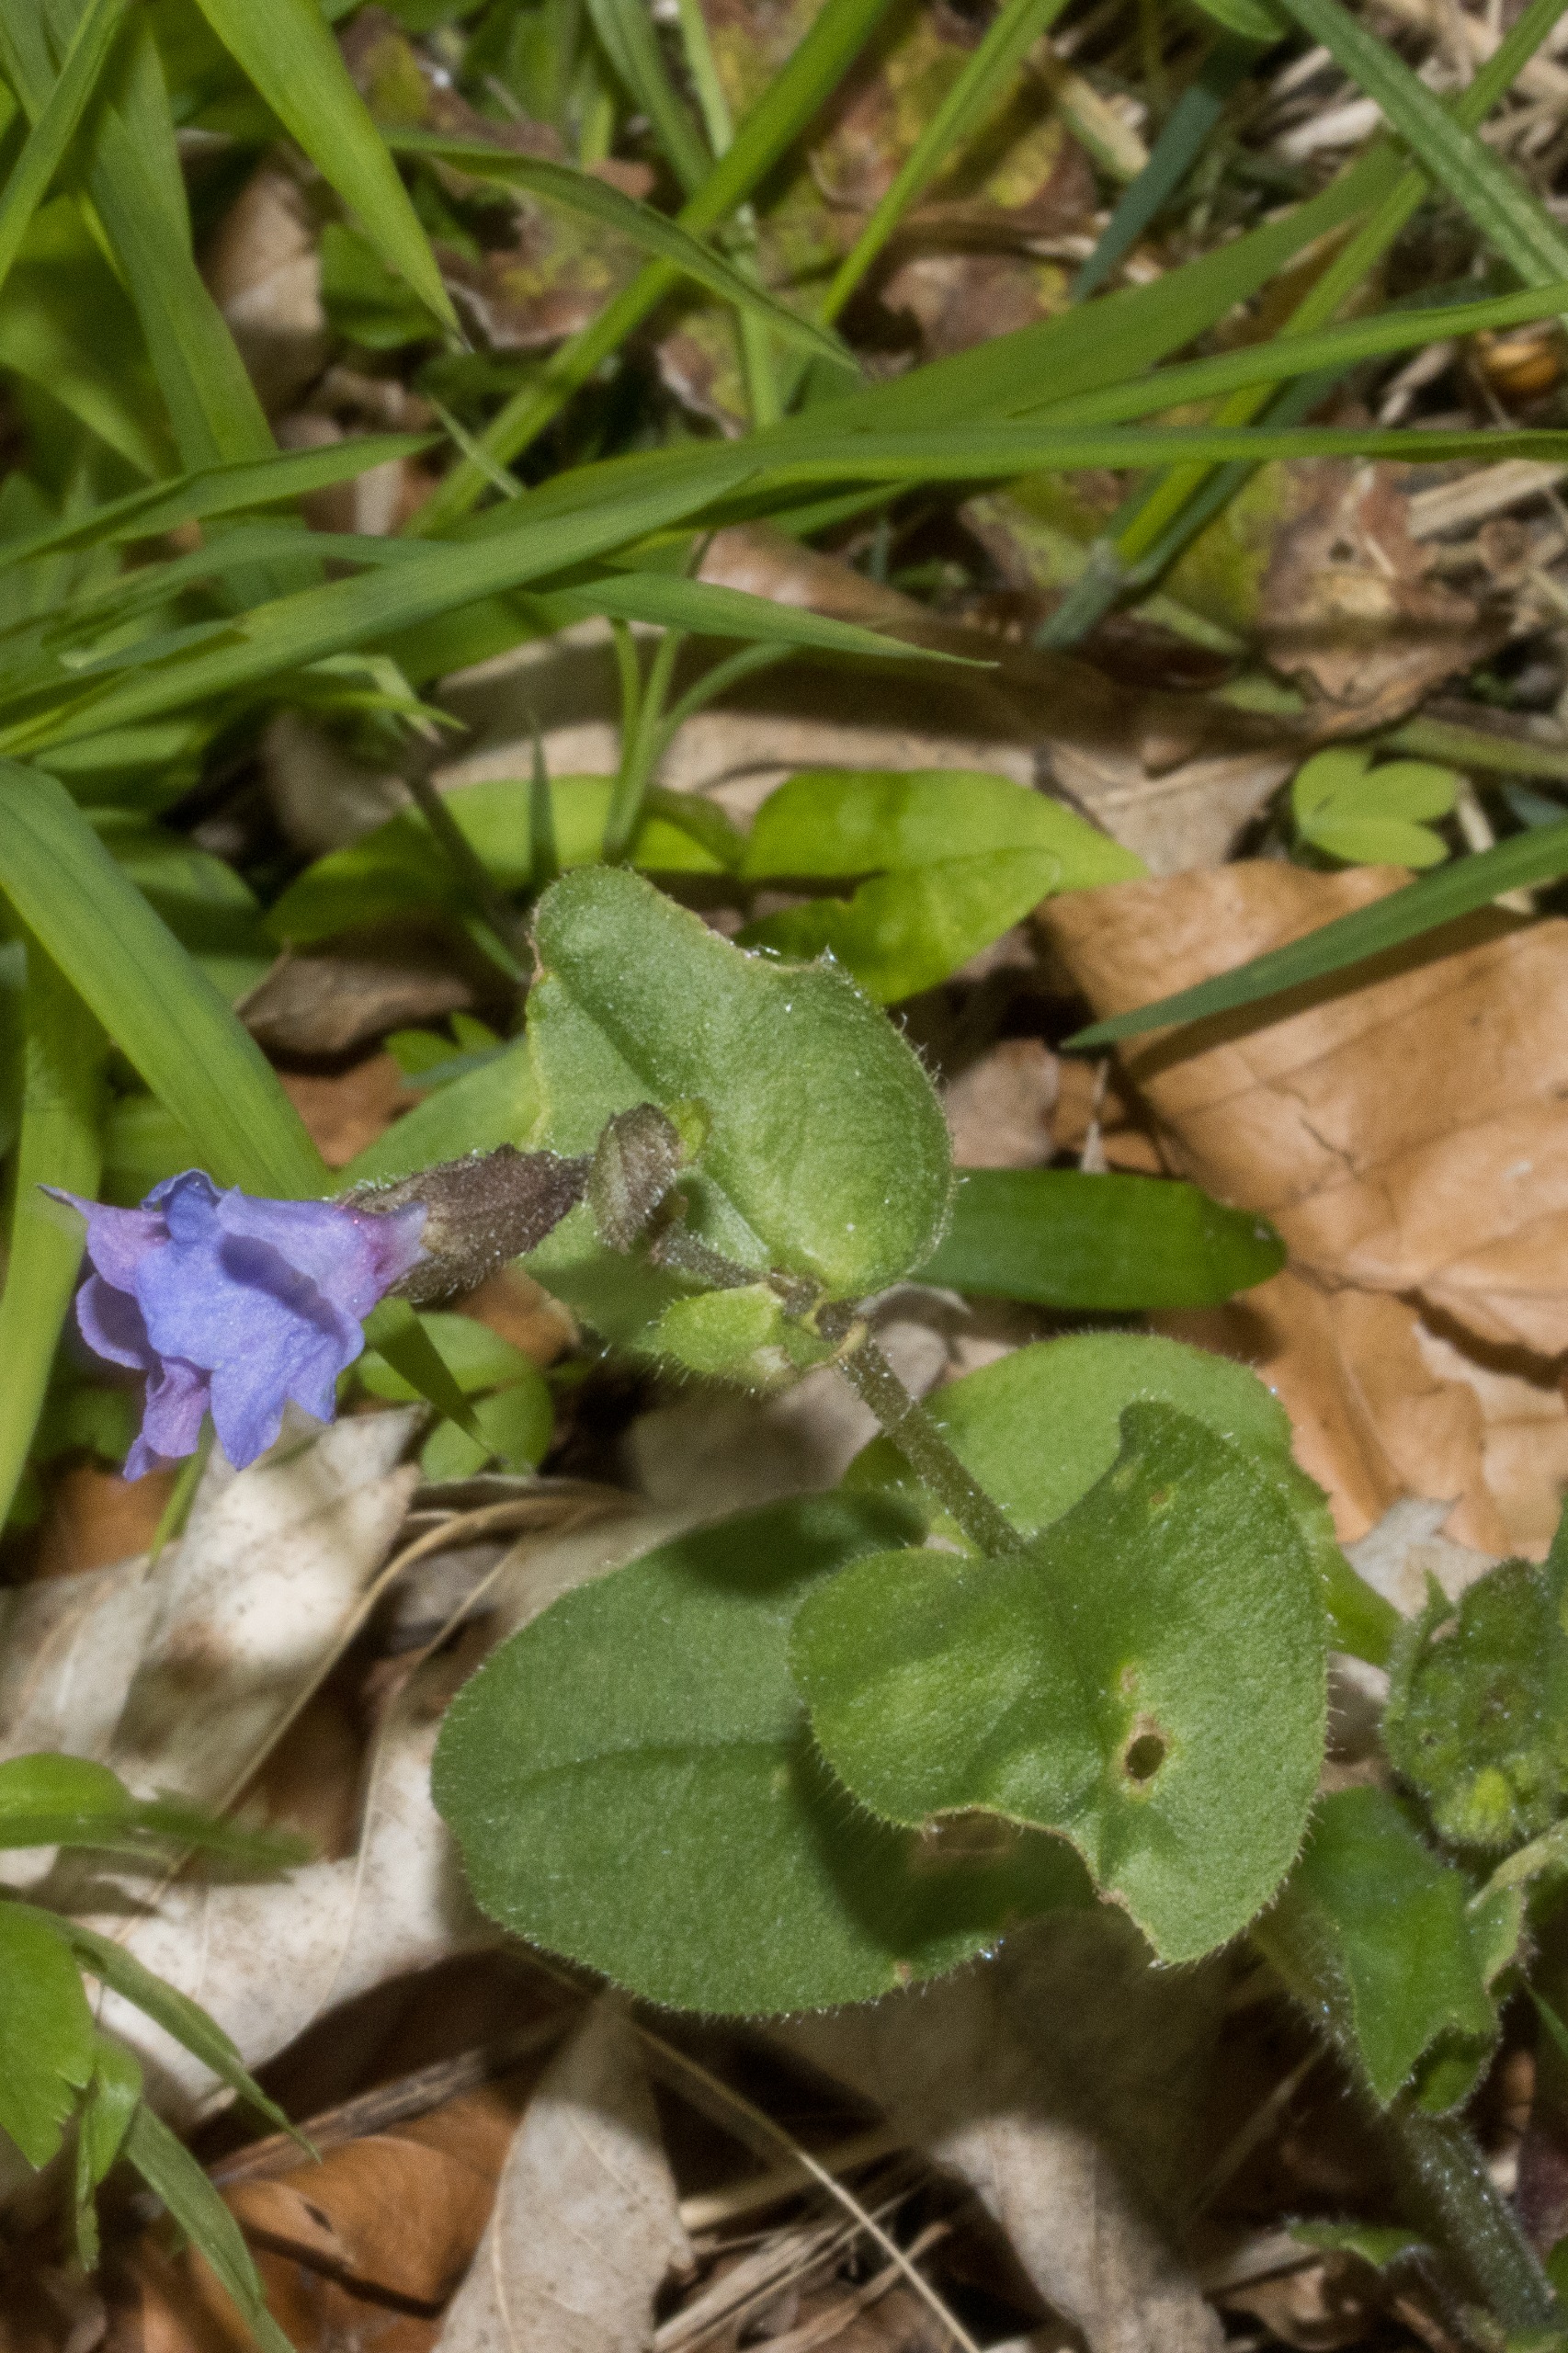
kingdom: Plantae
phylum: Tracheophyta
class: Magnoliopsida
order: Boraginales
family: Boraginaceae
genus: Pulmonaria
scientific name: Pulmonaria obscura
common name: Almindelig lungeurt
